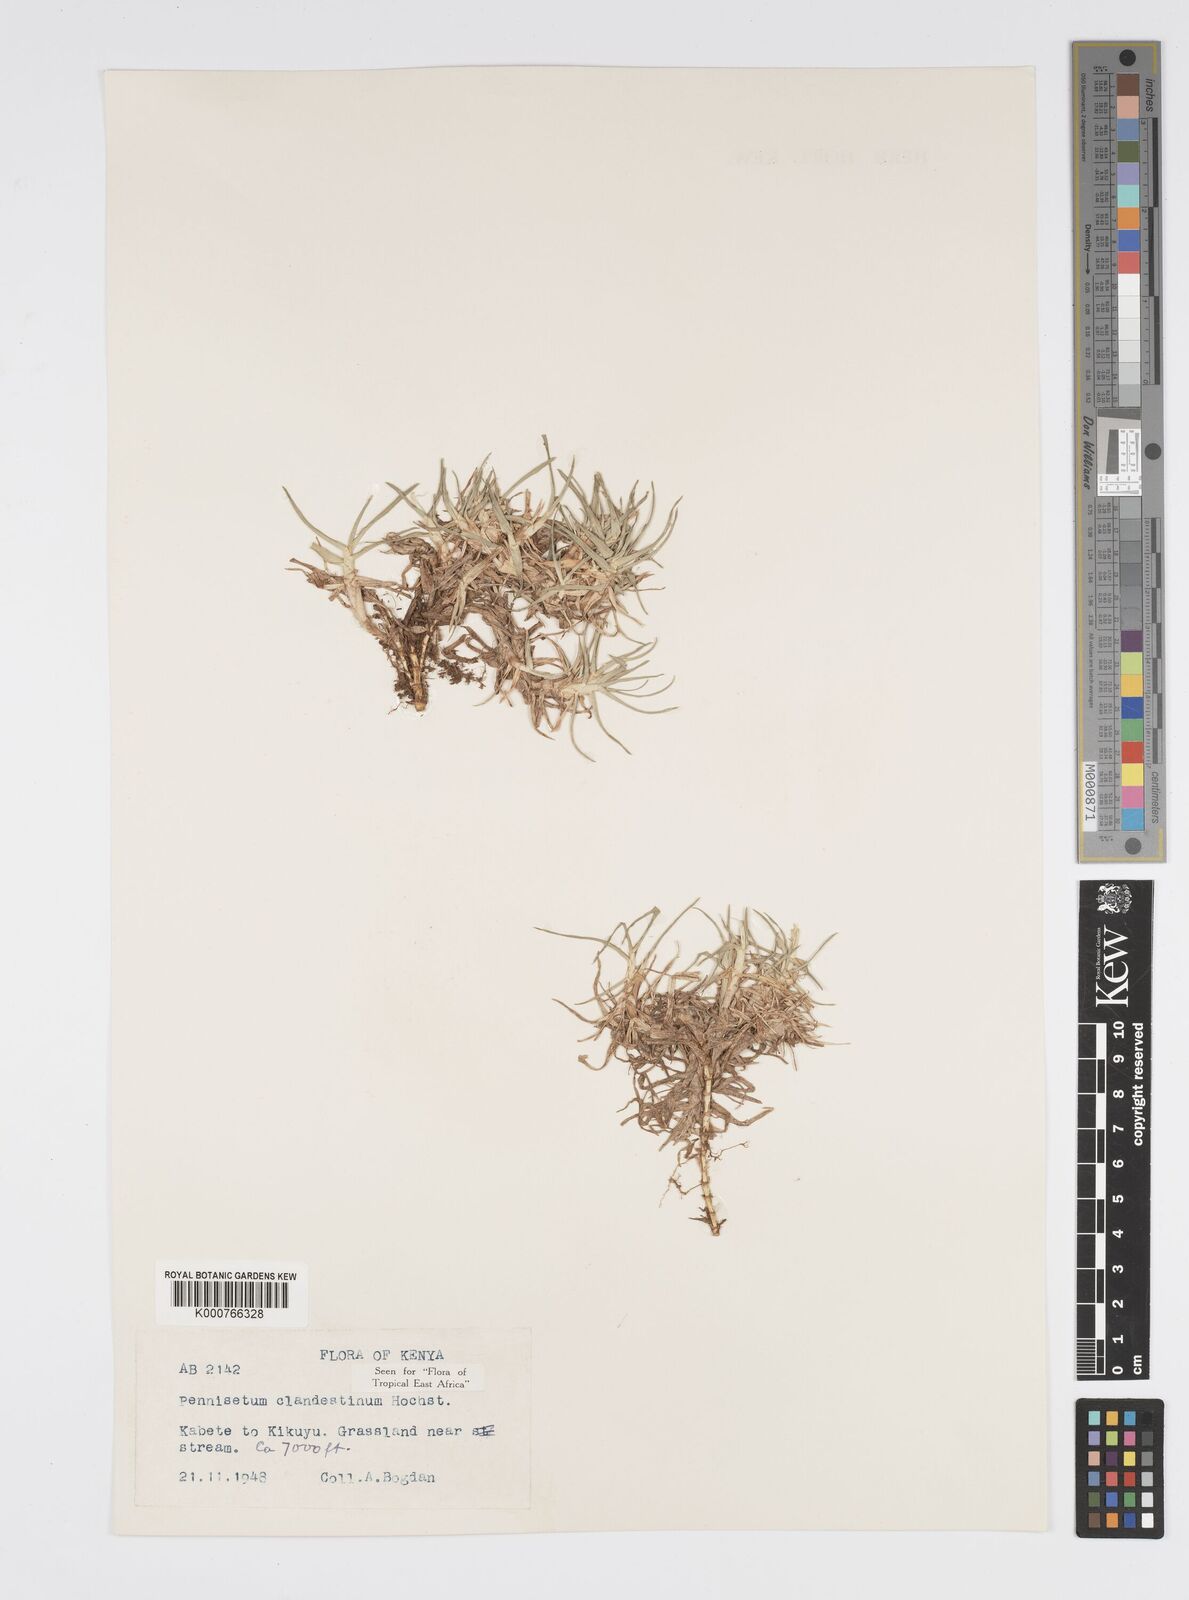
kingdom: Plantae
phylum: Tracheophyta
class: Liliopsida
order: Poales
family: Poaceae
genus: Cenchrus
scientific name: Cenchrus clandestinus
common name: Kikuyugrass
